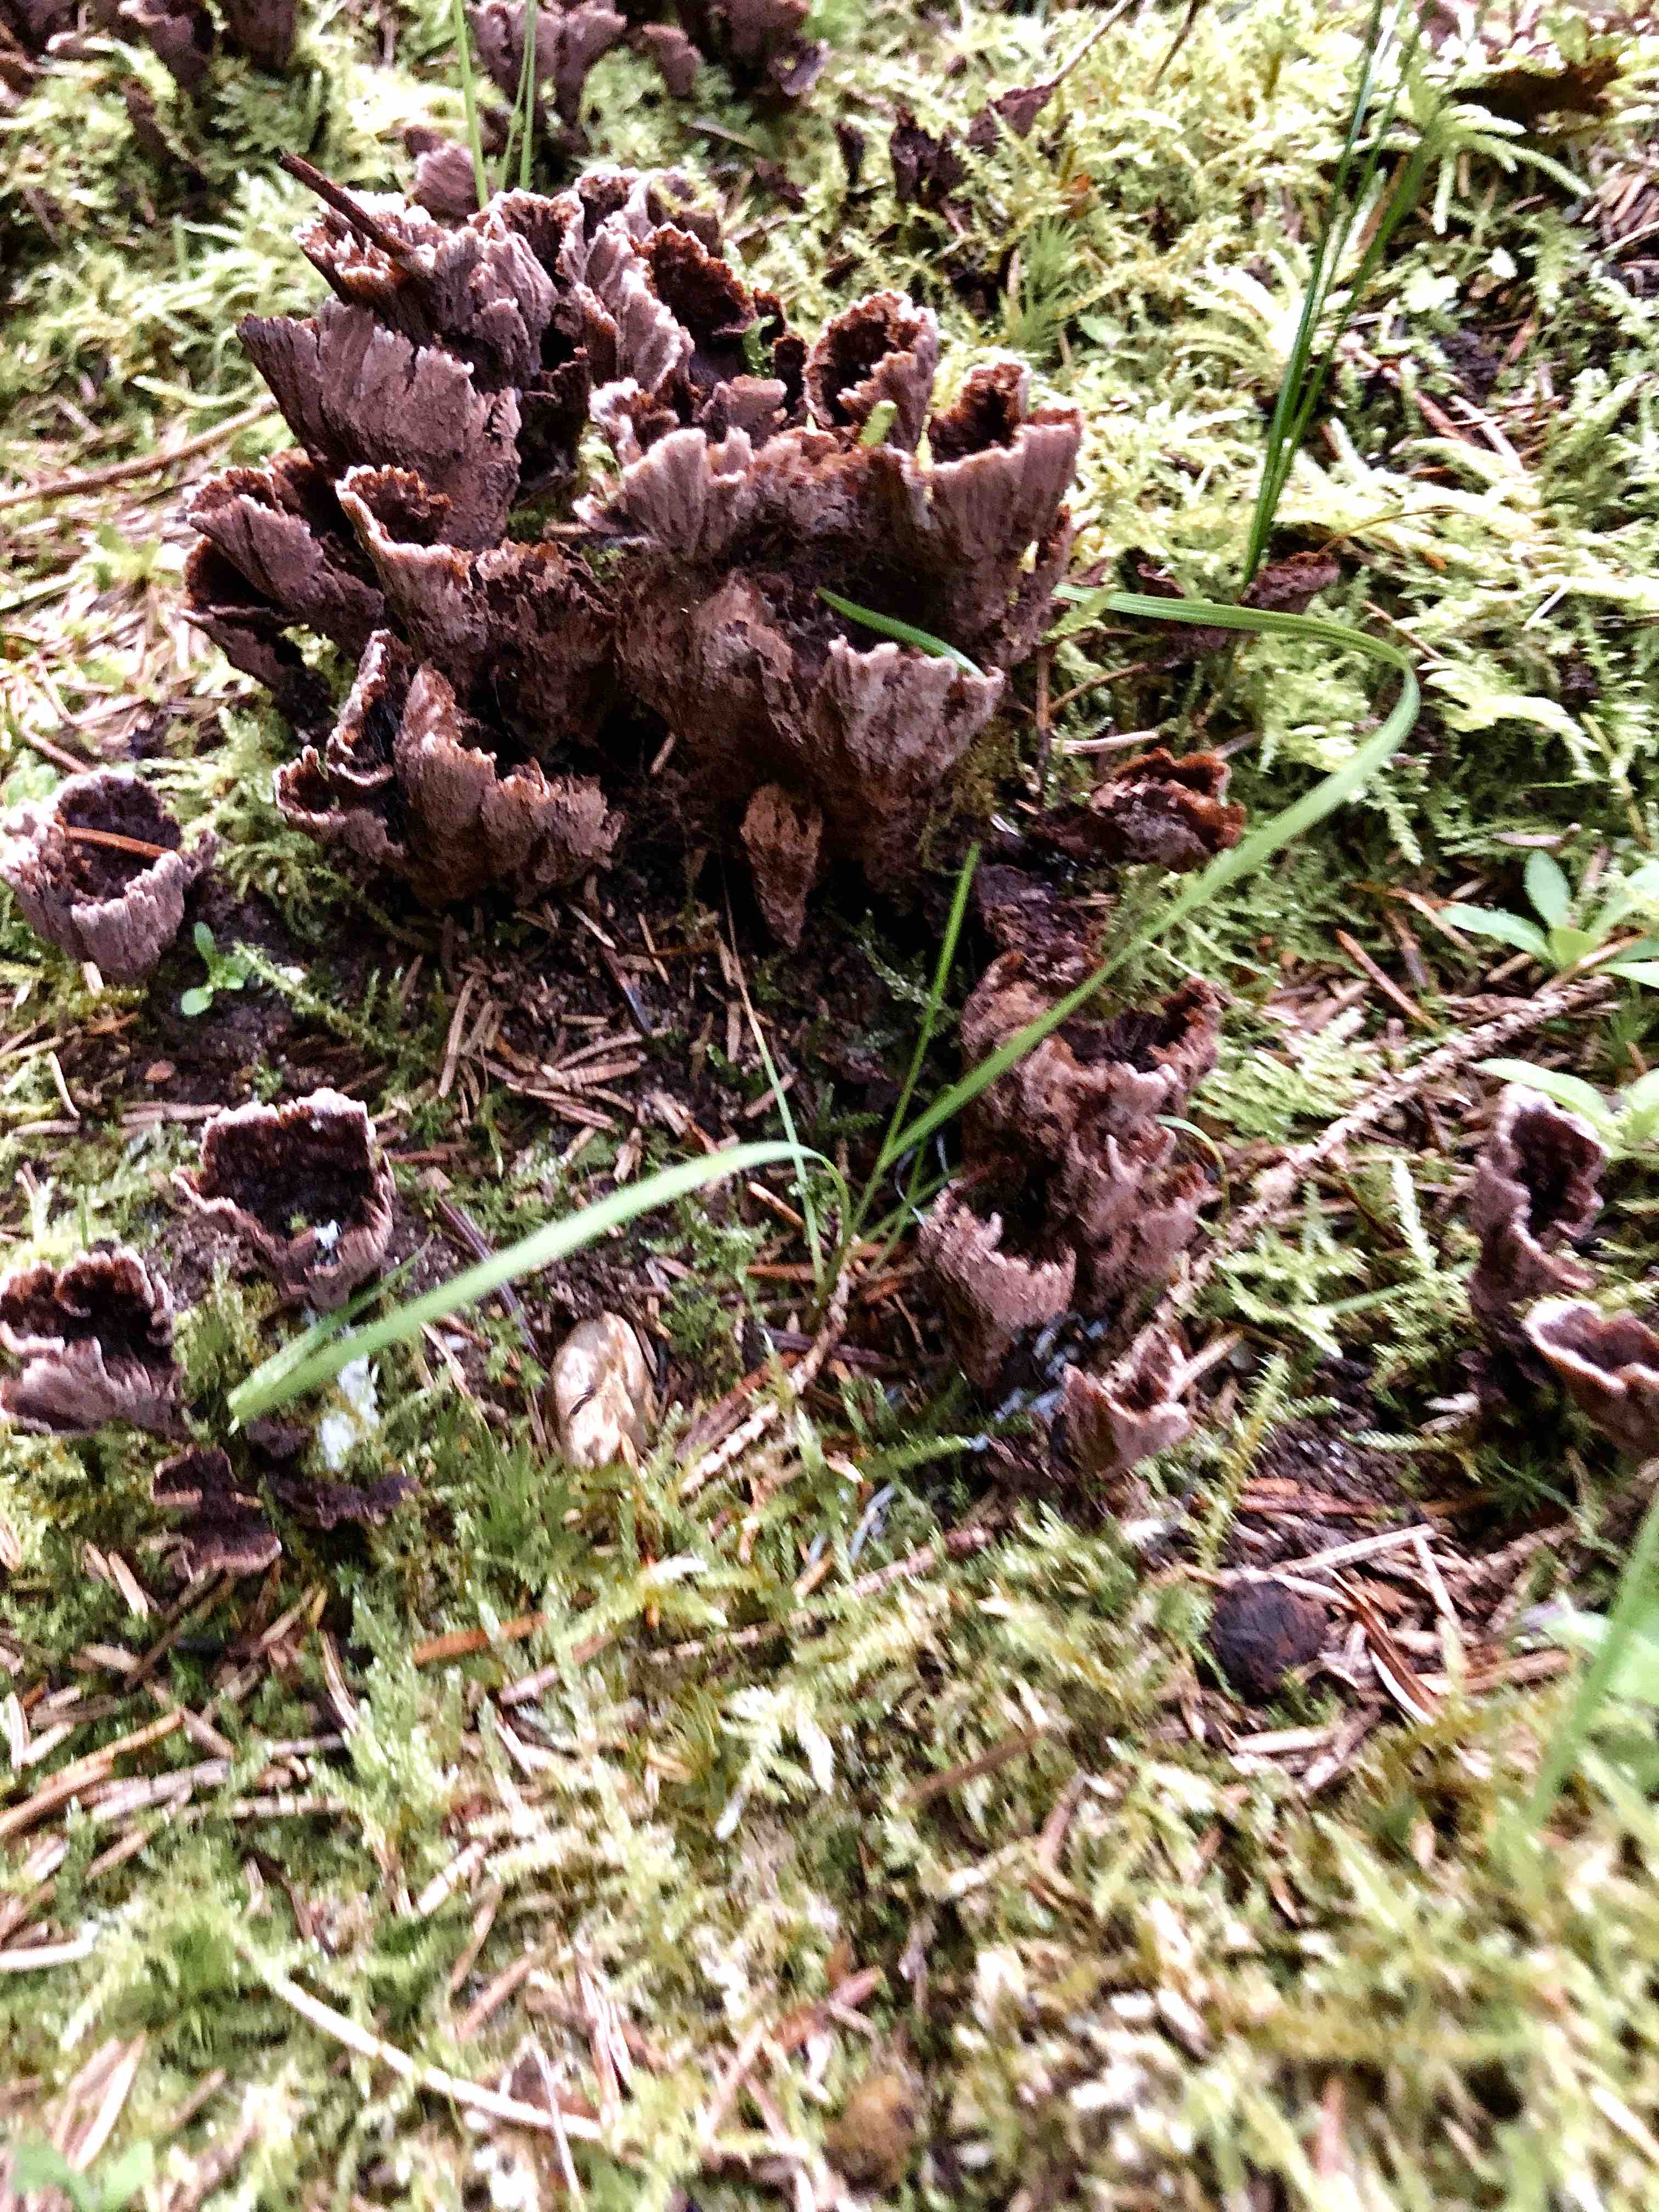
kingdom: Fungi
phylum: Basidiomycota
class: Agaricomycetes
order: Thelephorales
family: Thelephoraceae
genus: Thelephora
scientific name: Thelephora terrestris
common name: fliget frynsesvamp
